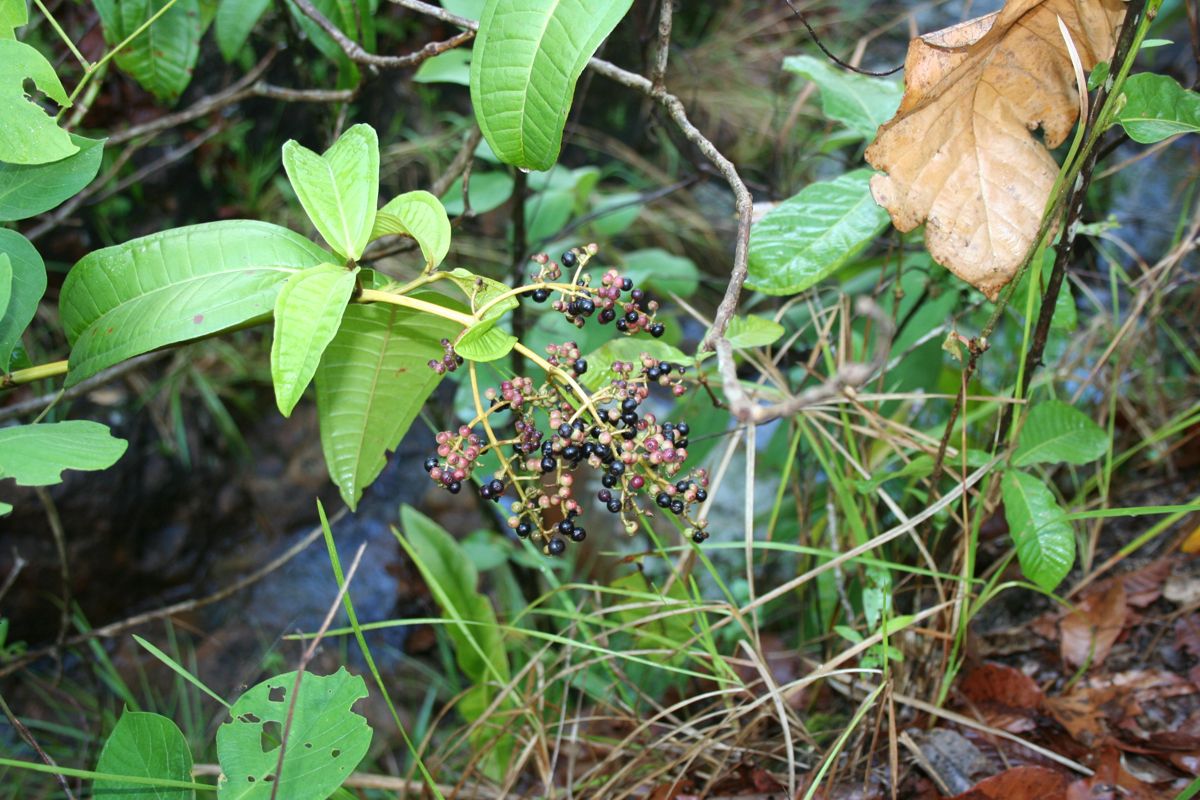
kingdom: Plantae
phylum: Tracheophyta
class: Magnoliopsida
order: Myrtales
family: Melastomataceae
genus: Miconia
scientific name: Miconia chamissois
